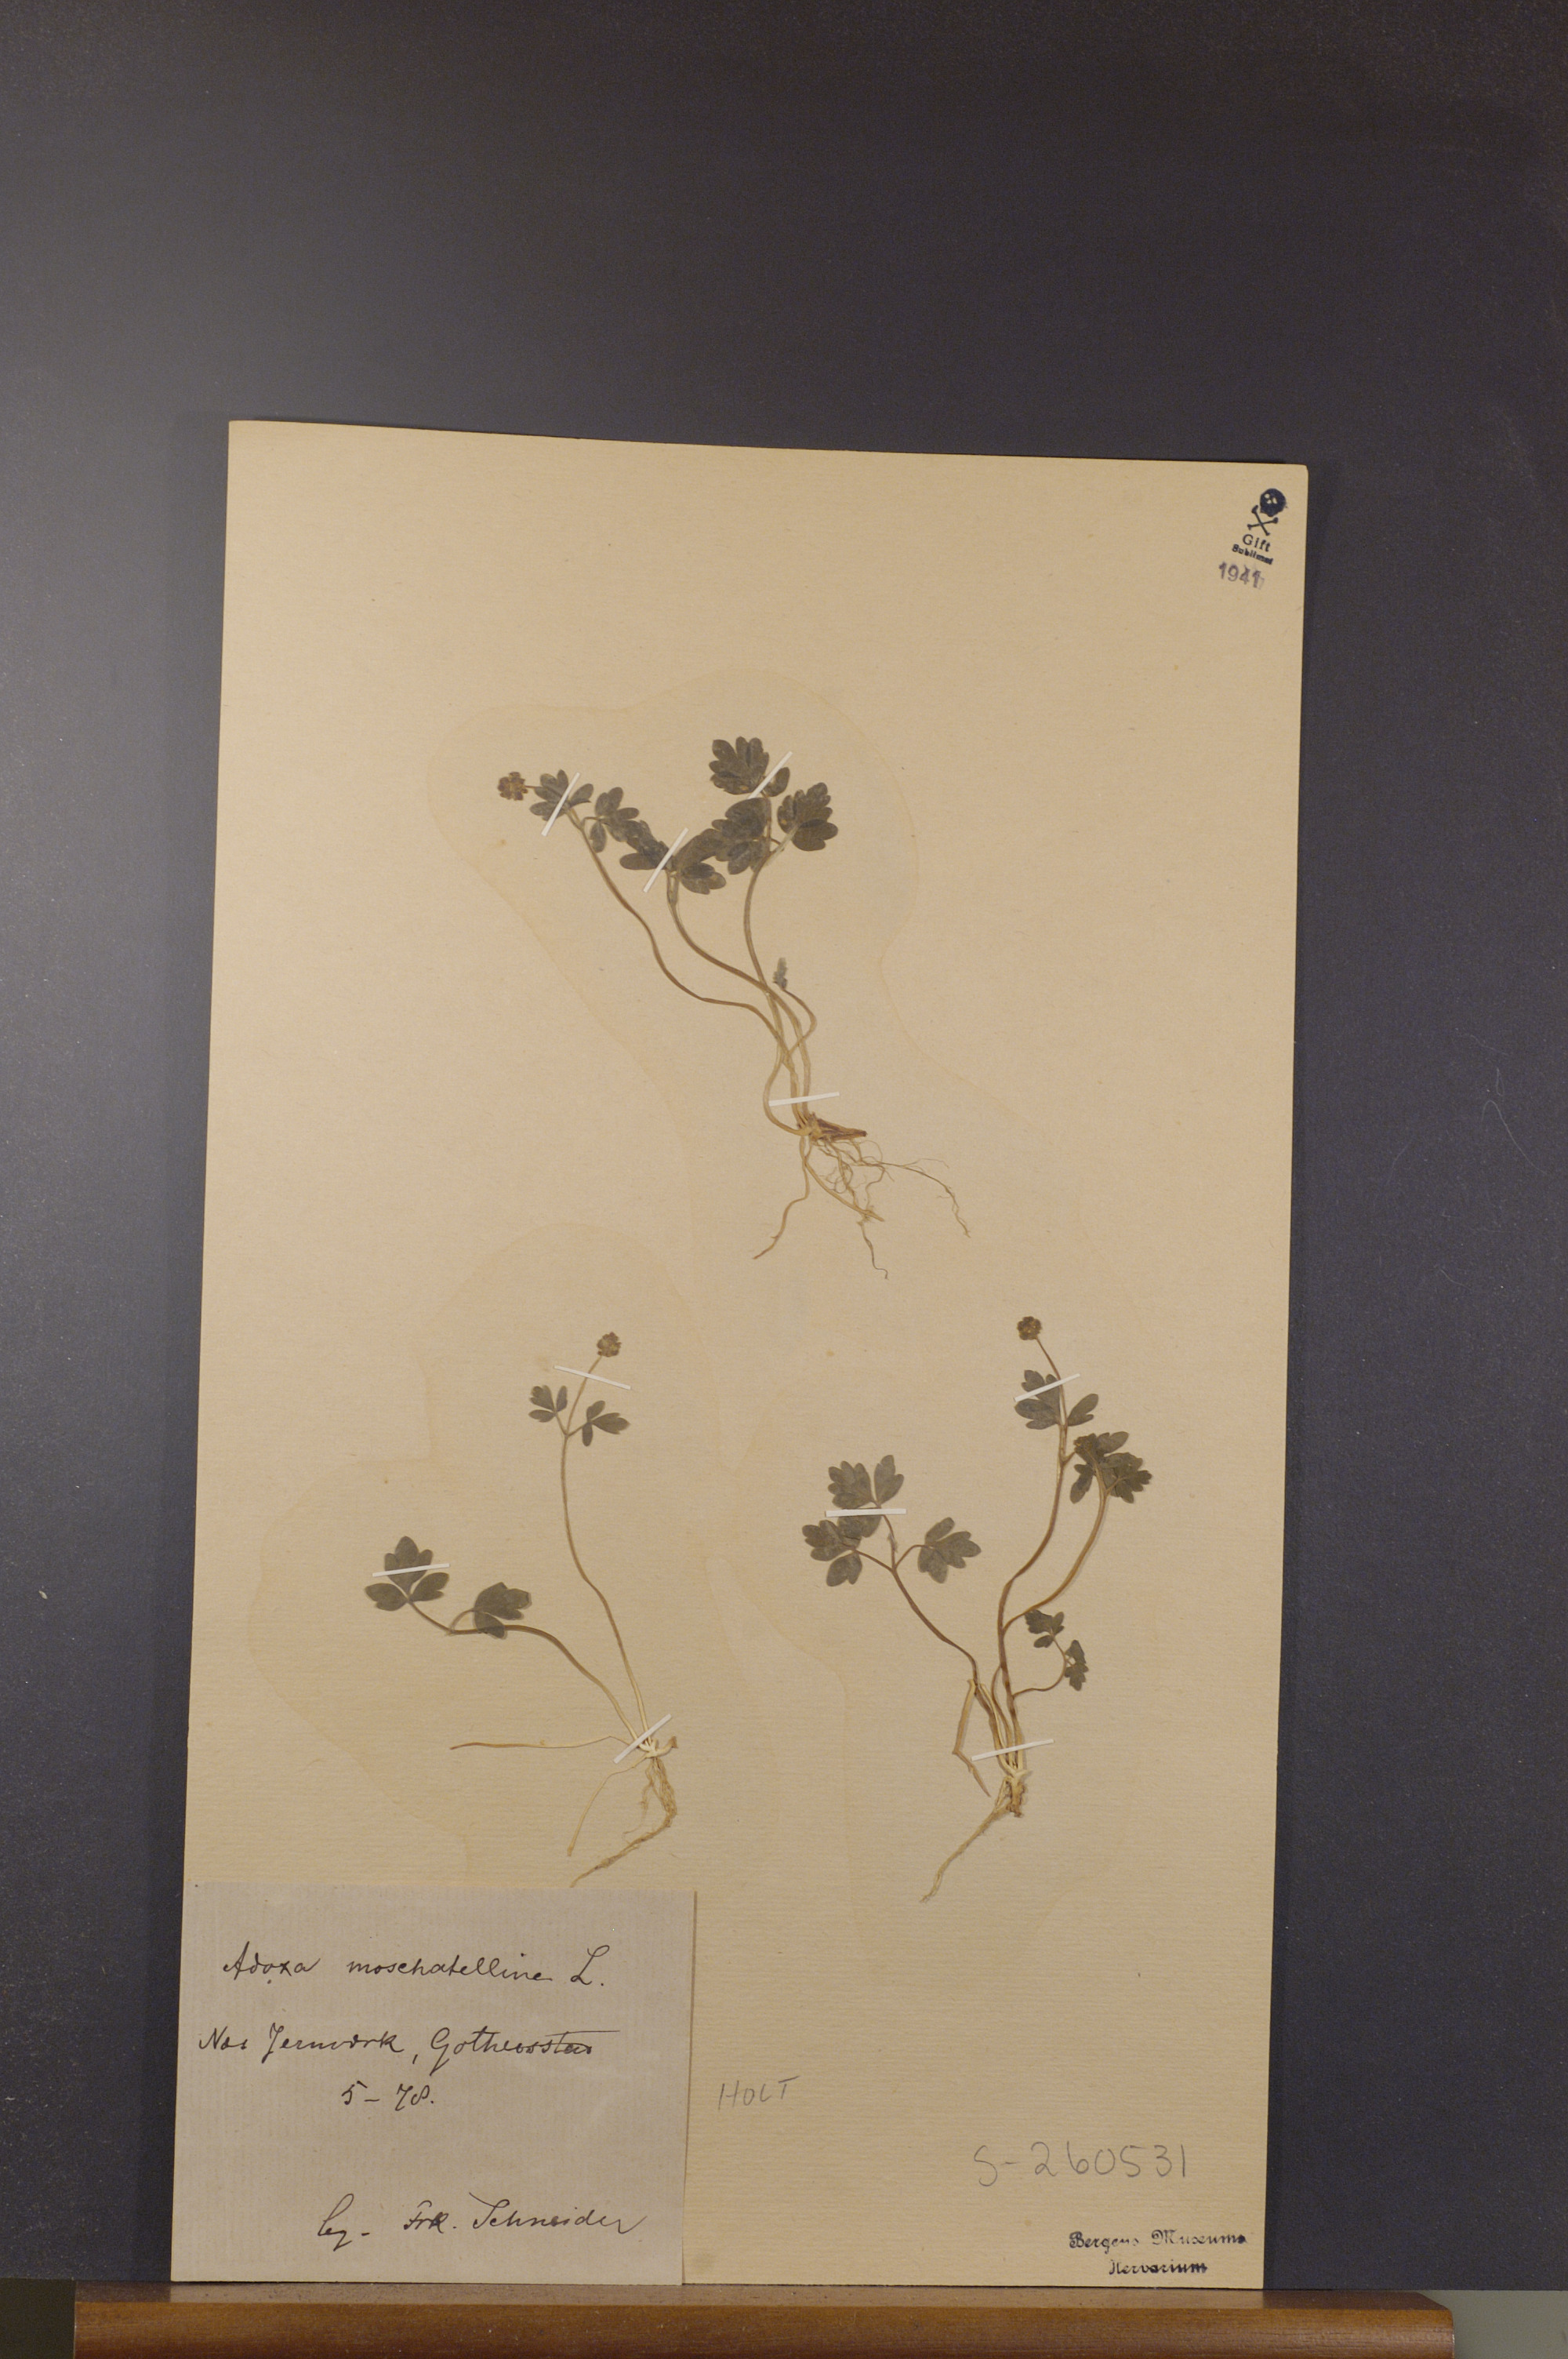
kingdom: Plantae
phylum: Tracheophyta
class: Magnoliopsida
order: Dipsacales
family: Viburnaceae
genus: Adoxa
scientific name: Adoxa moschatellina
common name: Moschatel
